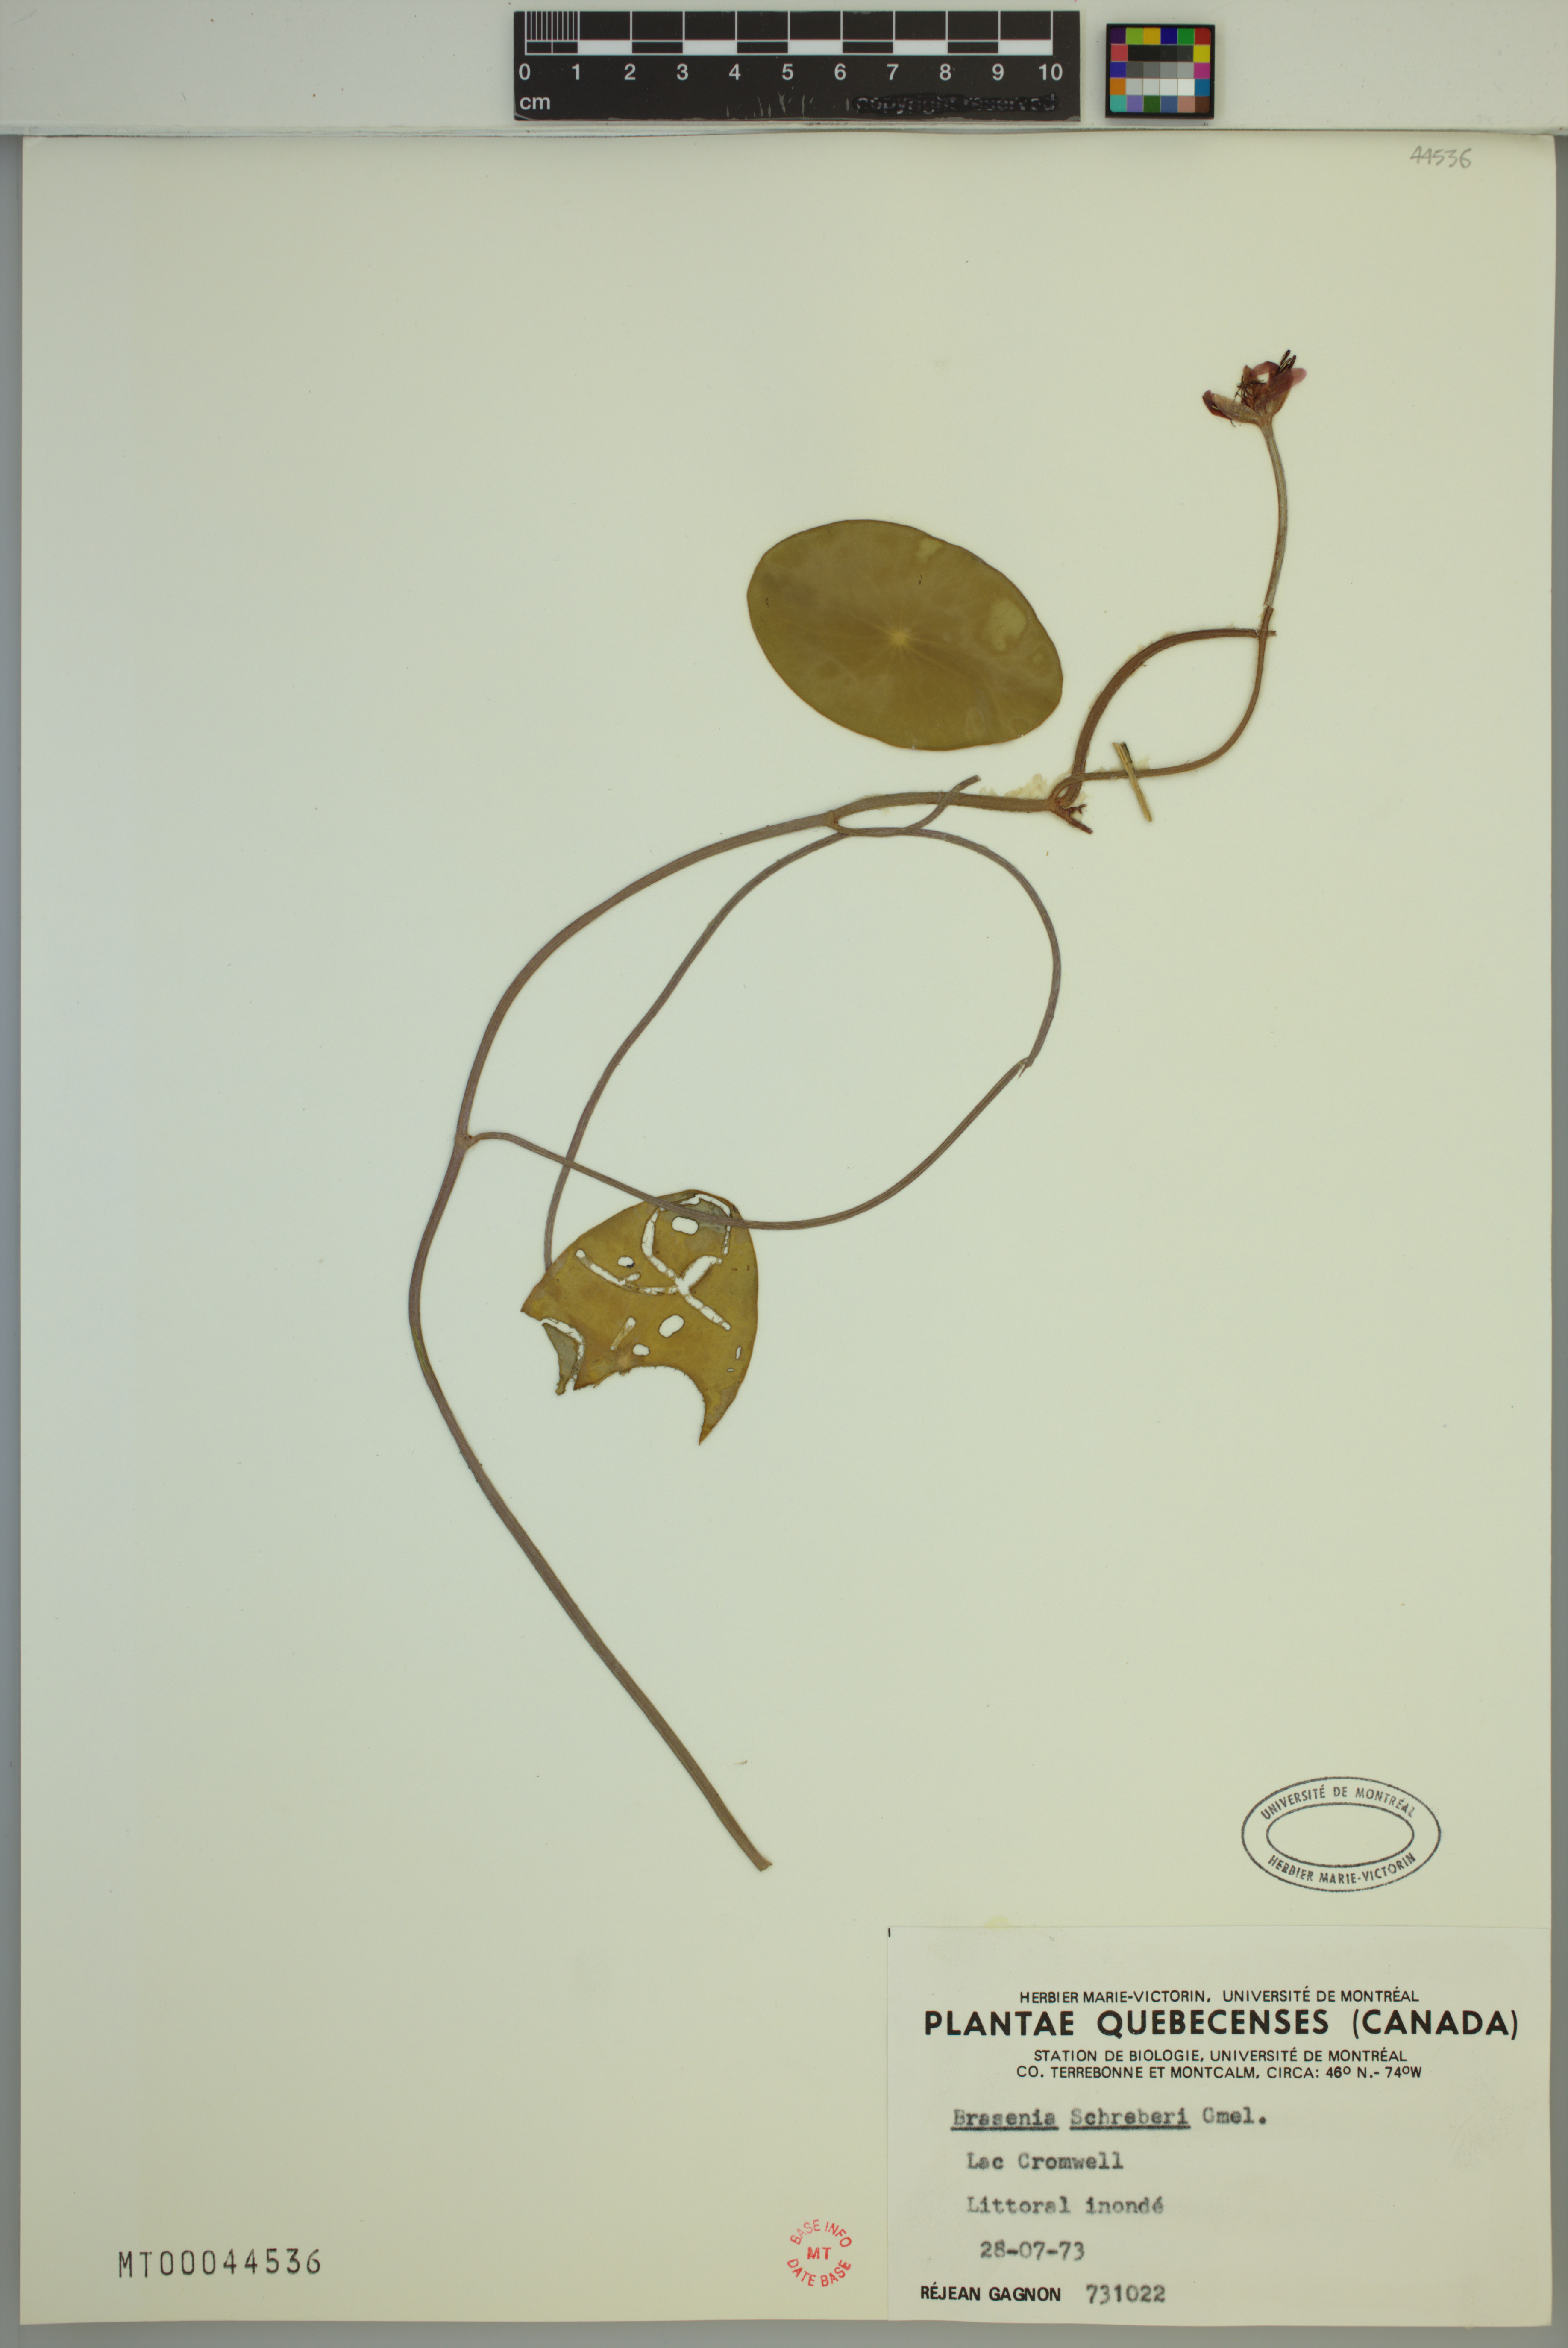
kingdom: Plantae
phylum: Tracheophyta
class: Magnoliopsida
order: Nymphaeales
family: Cabombaceae
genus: Brasenia
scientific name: Brasenia schreberi
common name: Water-shield
